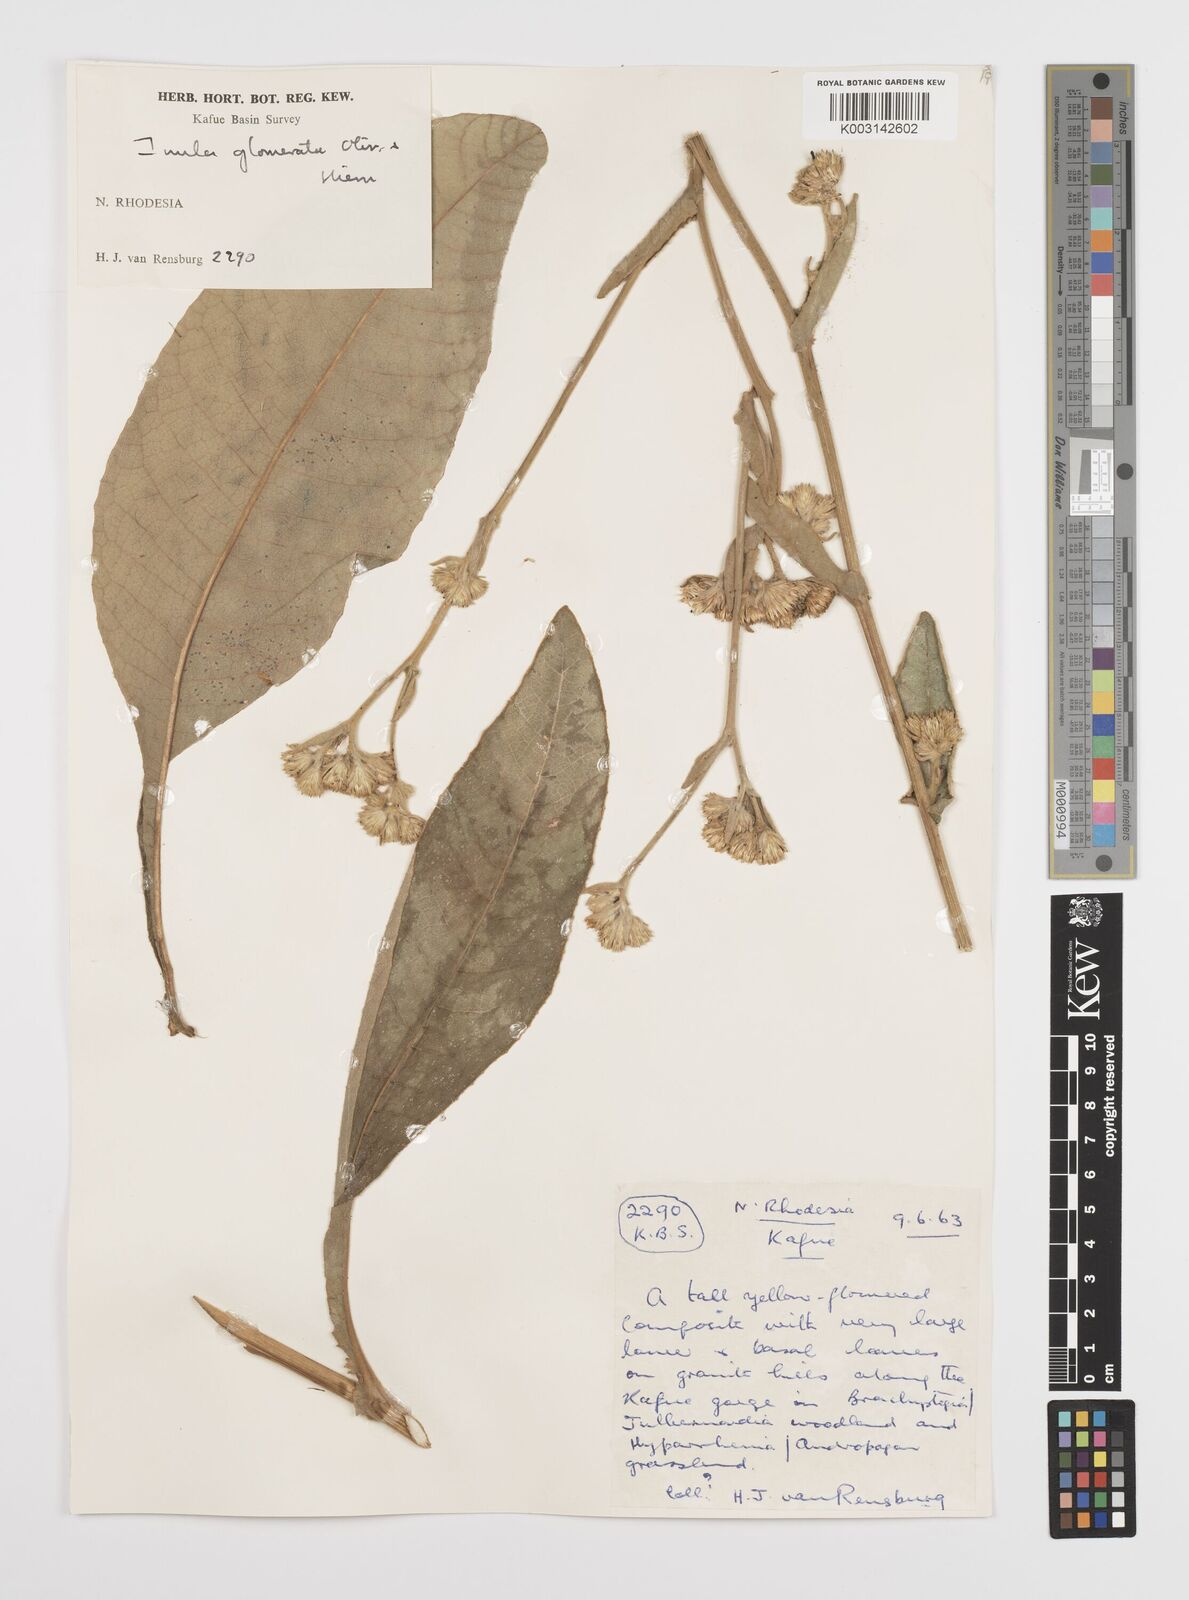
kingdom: Plantae
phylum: Tracheophyta
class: Magnoliopsida
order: Asterales
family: Asteraceae
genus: Inula
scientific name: Inula glomerata
